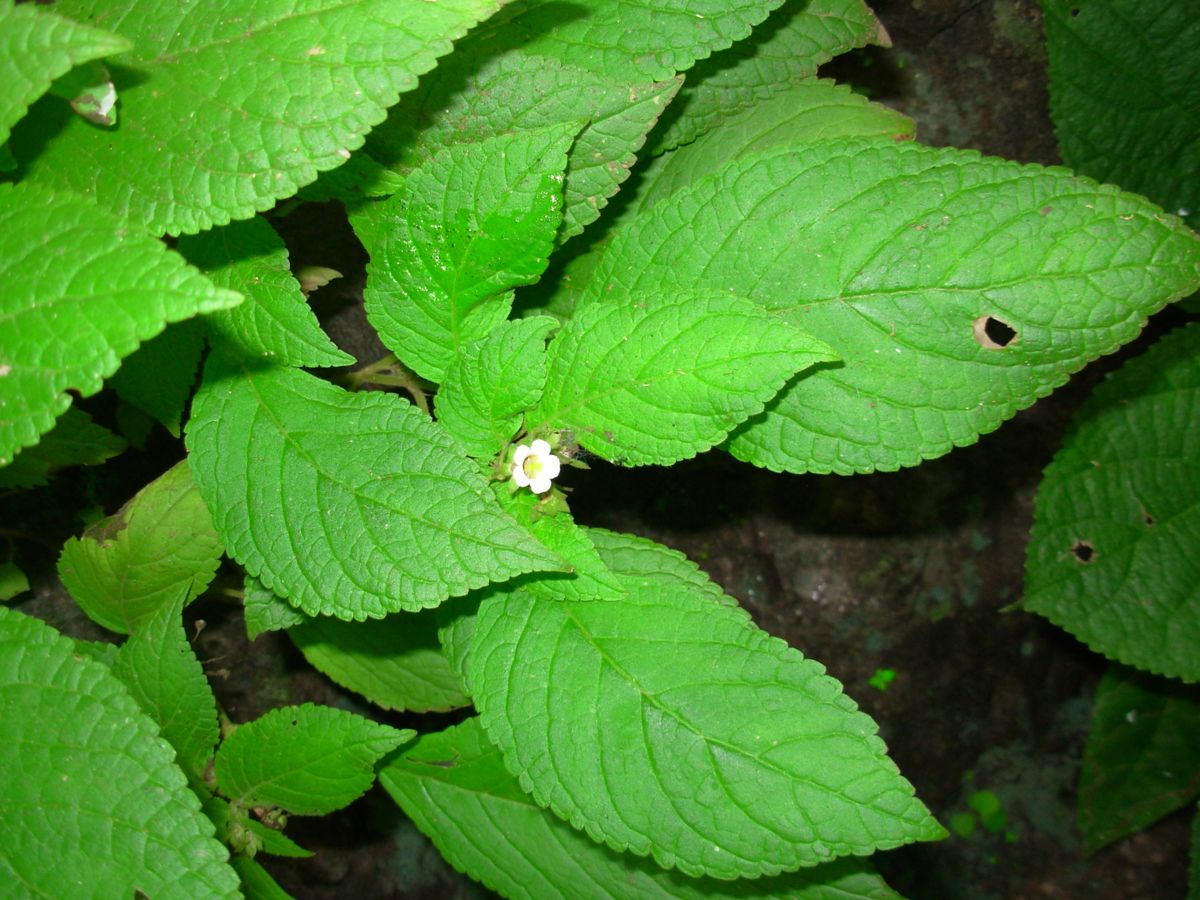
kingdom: Plantae
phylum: Tracheophyta
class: Magnoliopsida
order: Lamiales
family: Gesneriaceae
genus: Achimenes
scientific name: Achimenes misera
